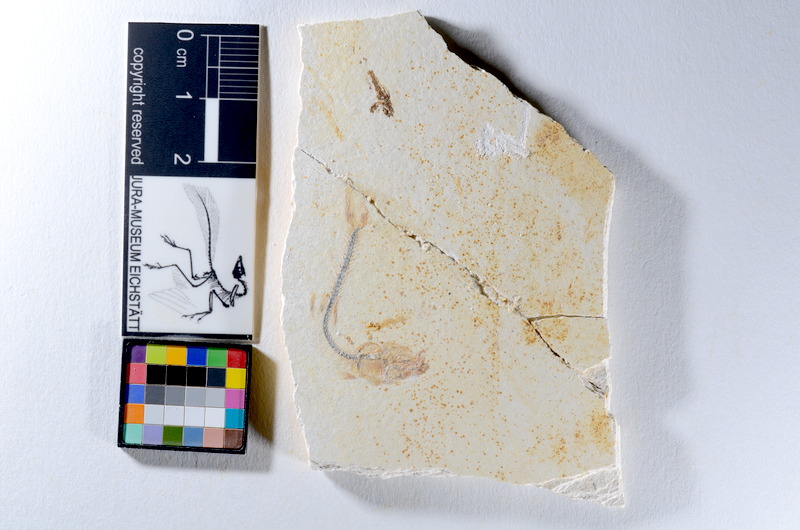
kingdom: Animalia
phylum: Chordata
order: Salmoniformes
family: Orthogonikleithridae
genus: Orthogonikleithrus
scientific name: Orthogonikleithrus hoelli
